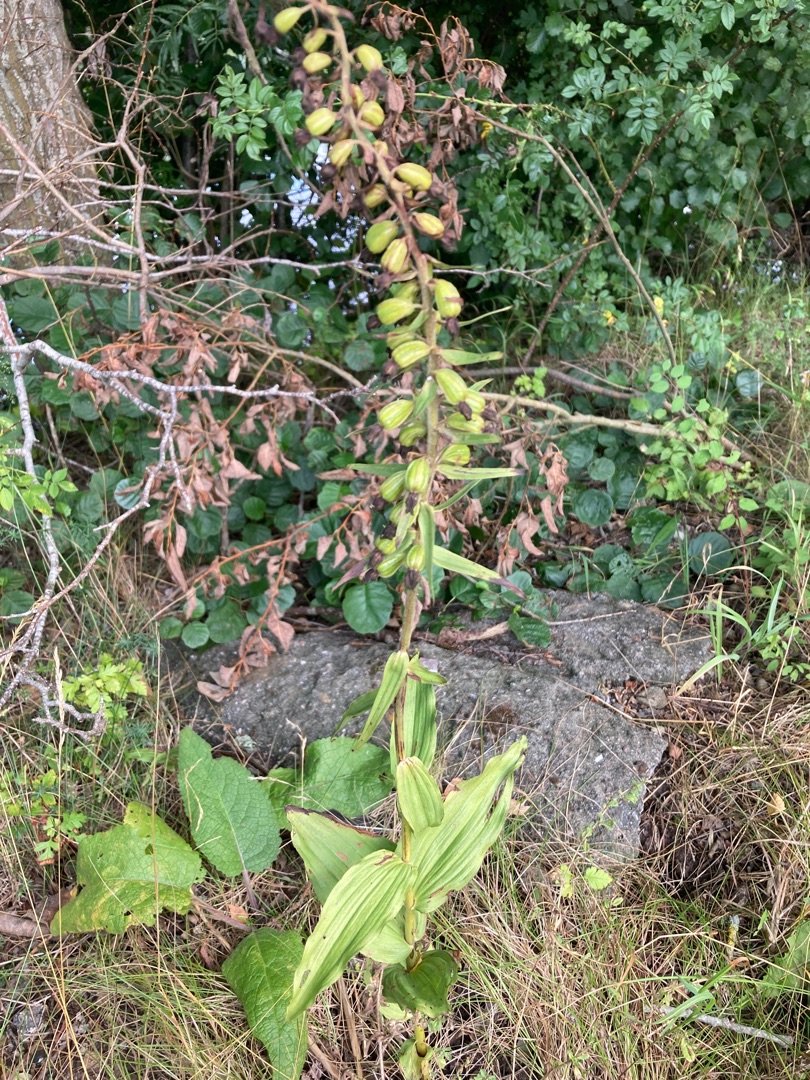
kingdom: Plantae
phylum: Tracheophyta
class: Liliopsida
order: Asparagales
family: Orchidaceae
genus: Epipactis
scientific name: Epipactis helleborine
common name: Skov-hullæbe
